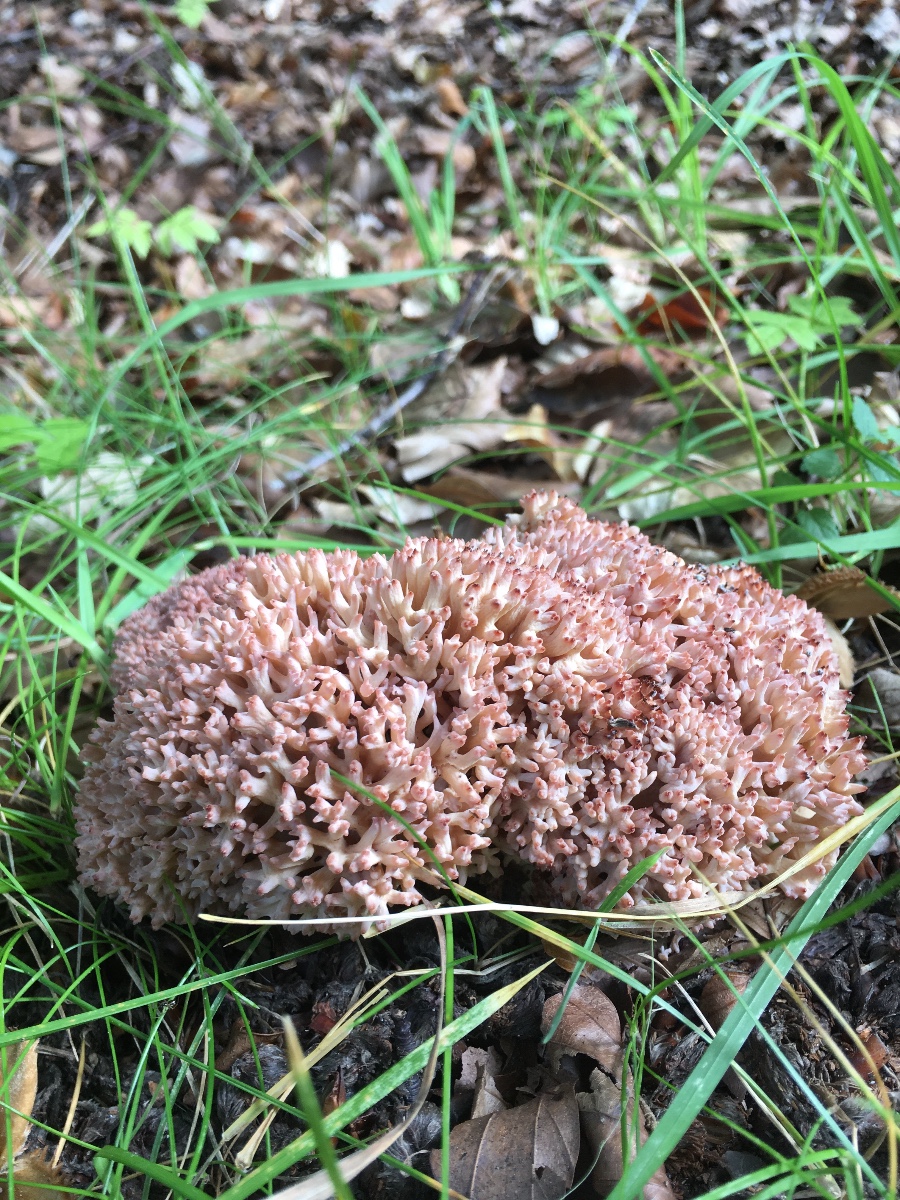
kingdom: Fungi
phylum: Basidiomycota
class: Agaricomycetes
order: Gomphales
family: Gomphaceae
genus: Ramaria
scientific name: Ramaria botrytis
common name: drue-koralsvamp
